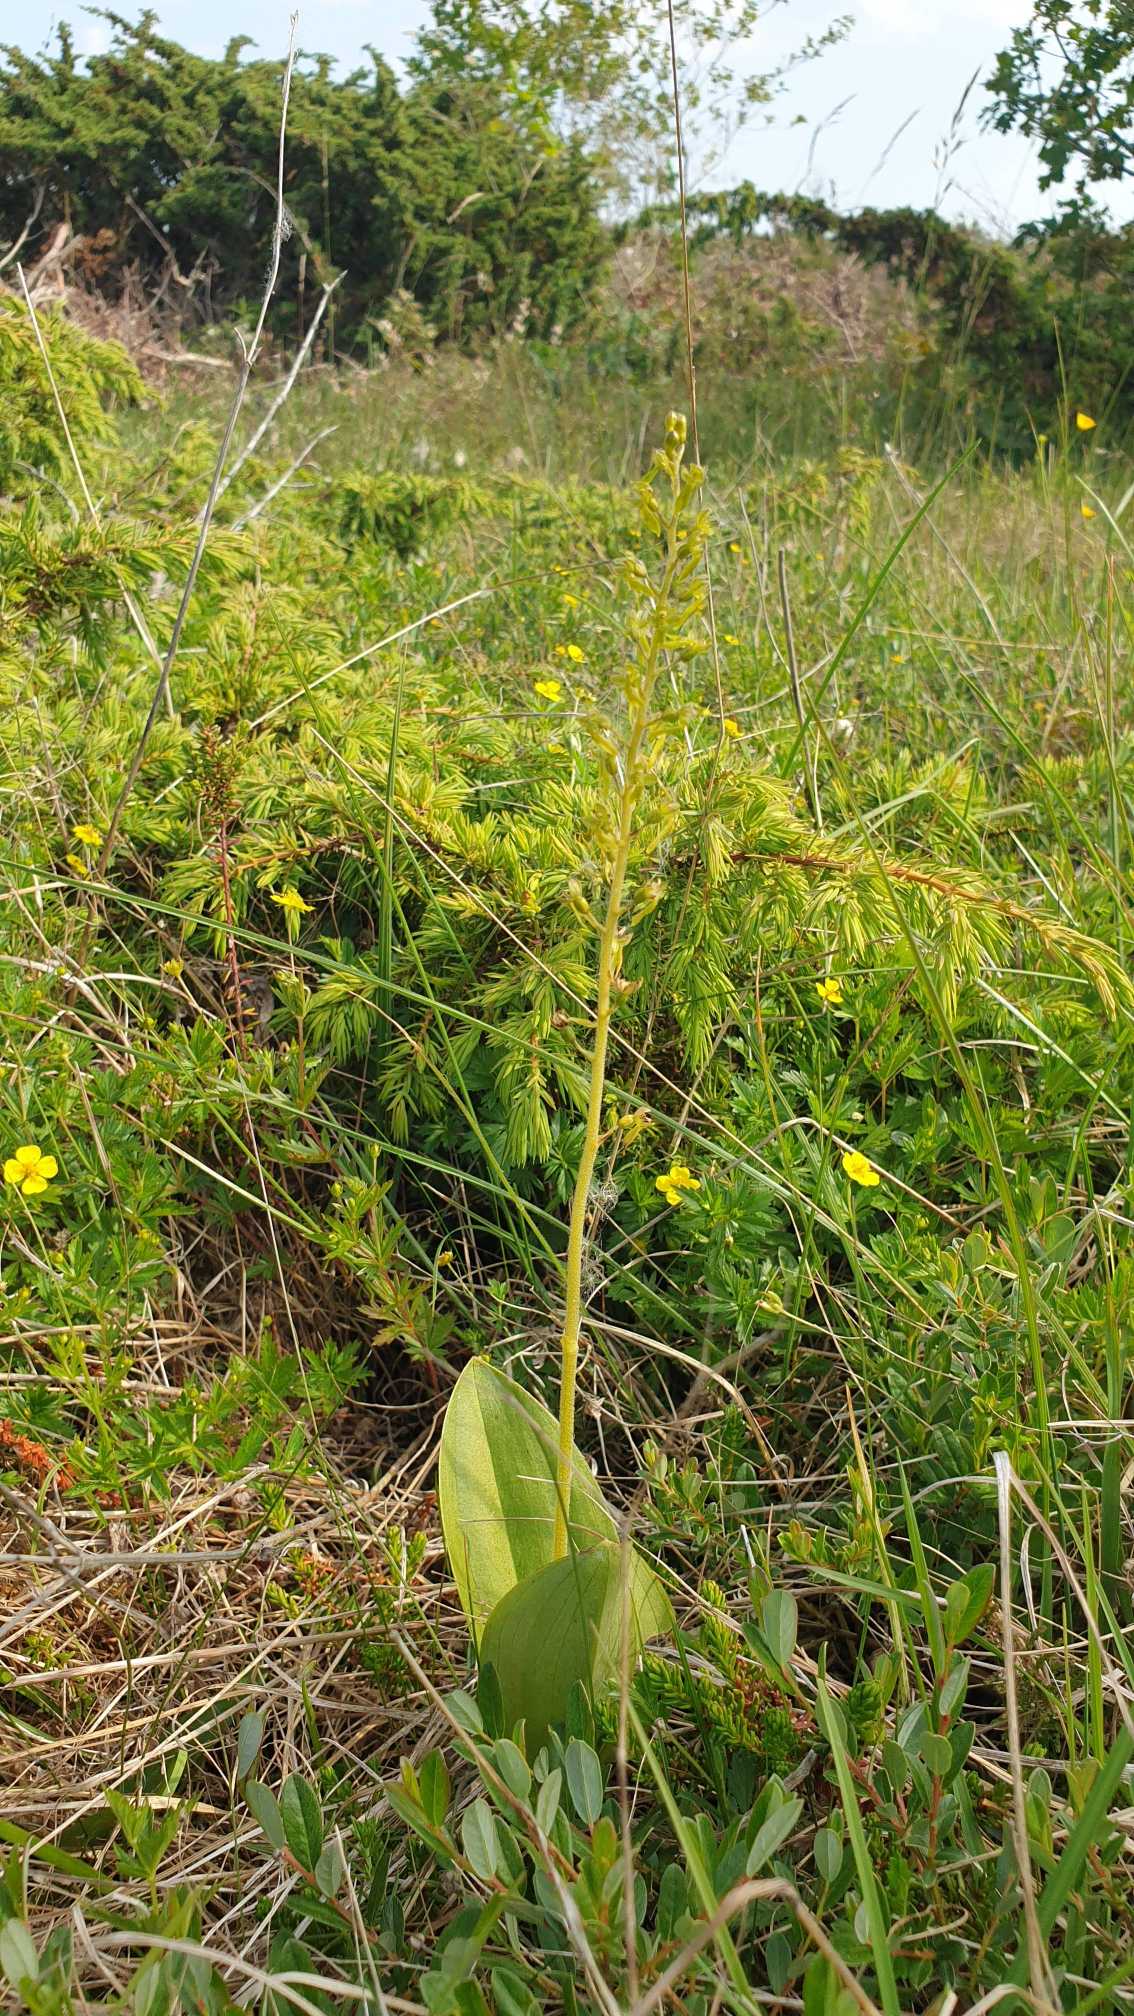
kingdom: Plantae
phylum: Tracheophyta
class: Liliopsida
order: Asparagales
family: Orchidaceae
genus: Neottia
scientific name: Neottia ovata
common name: Ægbladet fliglæbe
